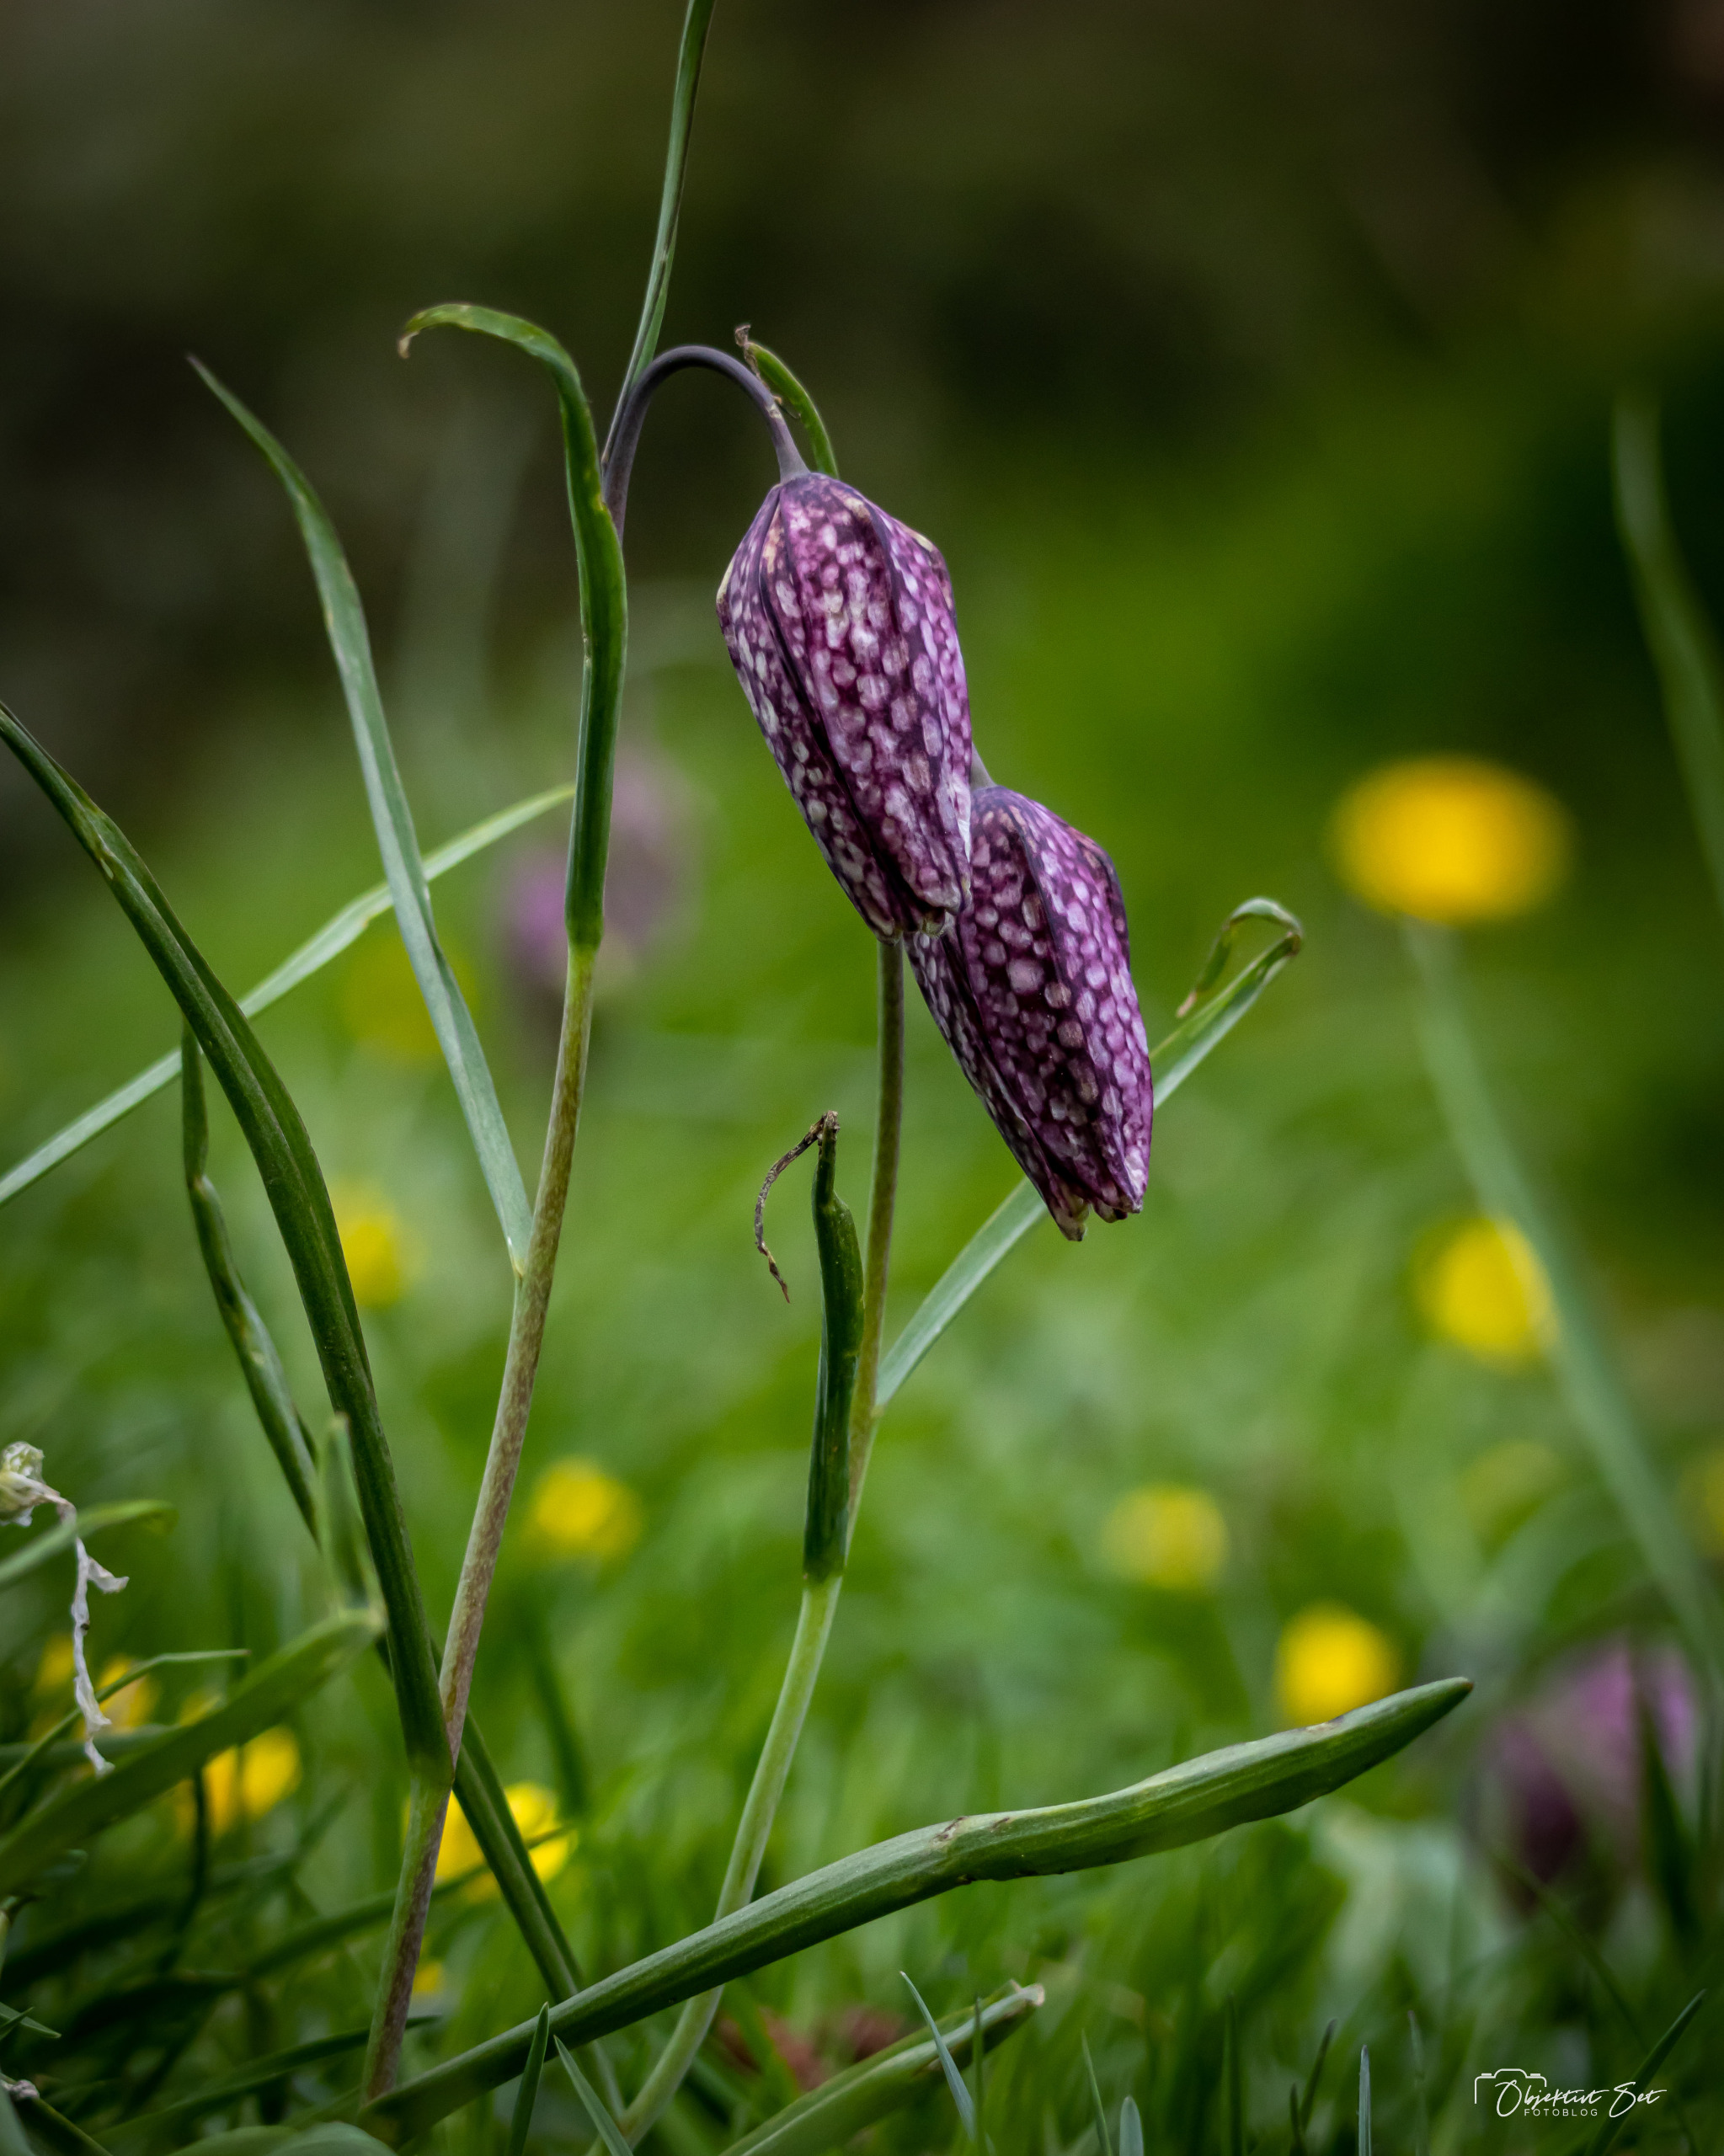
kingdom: Plantae
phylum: Tracheophyta
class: Liliopsida
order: Liliales
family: Liliaceae
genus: Fritillaria
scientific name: Fritillaria meleagris
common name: Vibeæg
